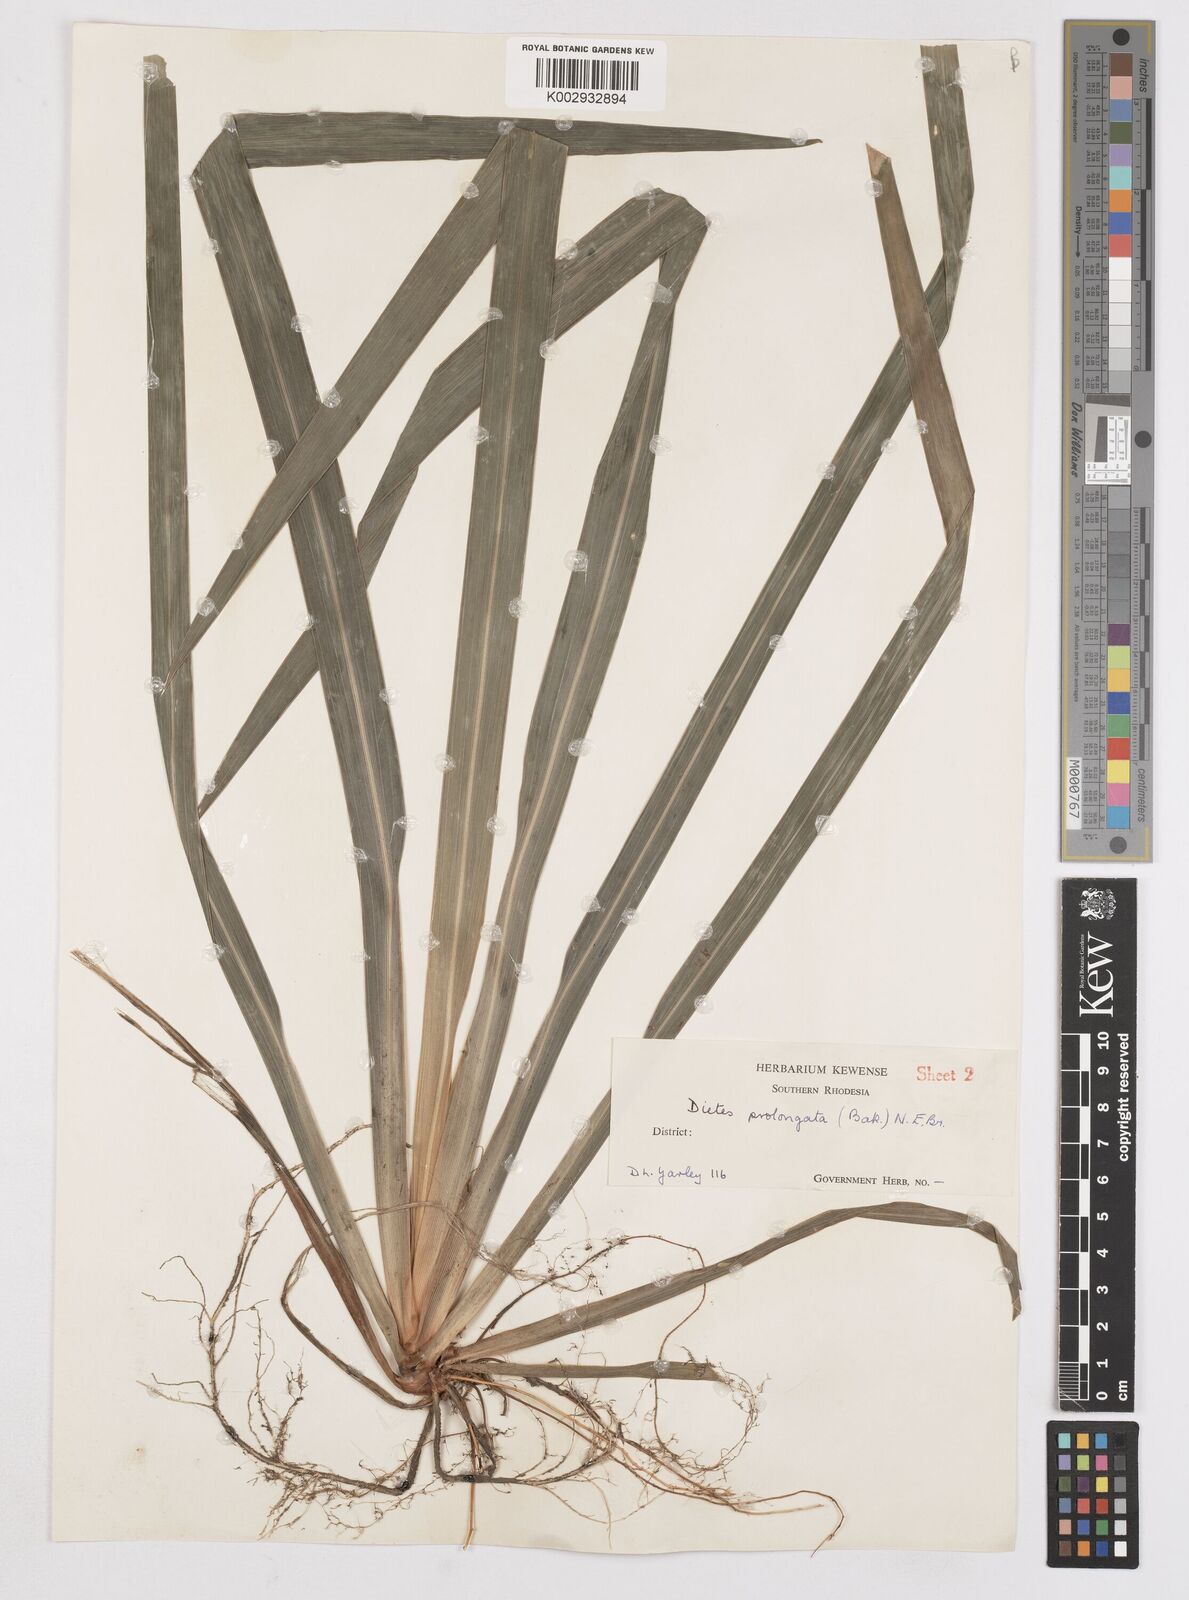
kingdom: Plantae
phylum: Tracheophyta
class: Liliopsida
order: Asparagales
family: Iridaceae
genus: Dietes
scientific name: Dietes iridioides
